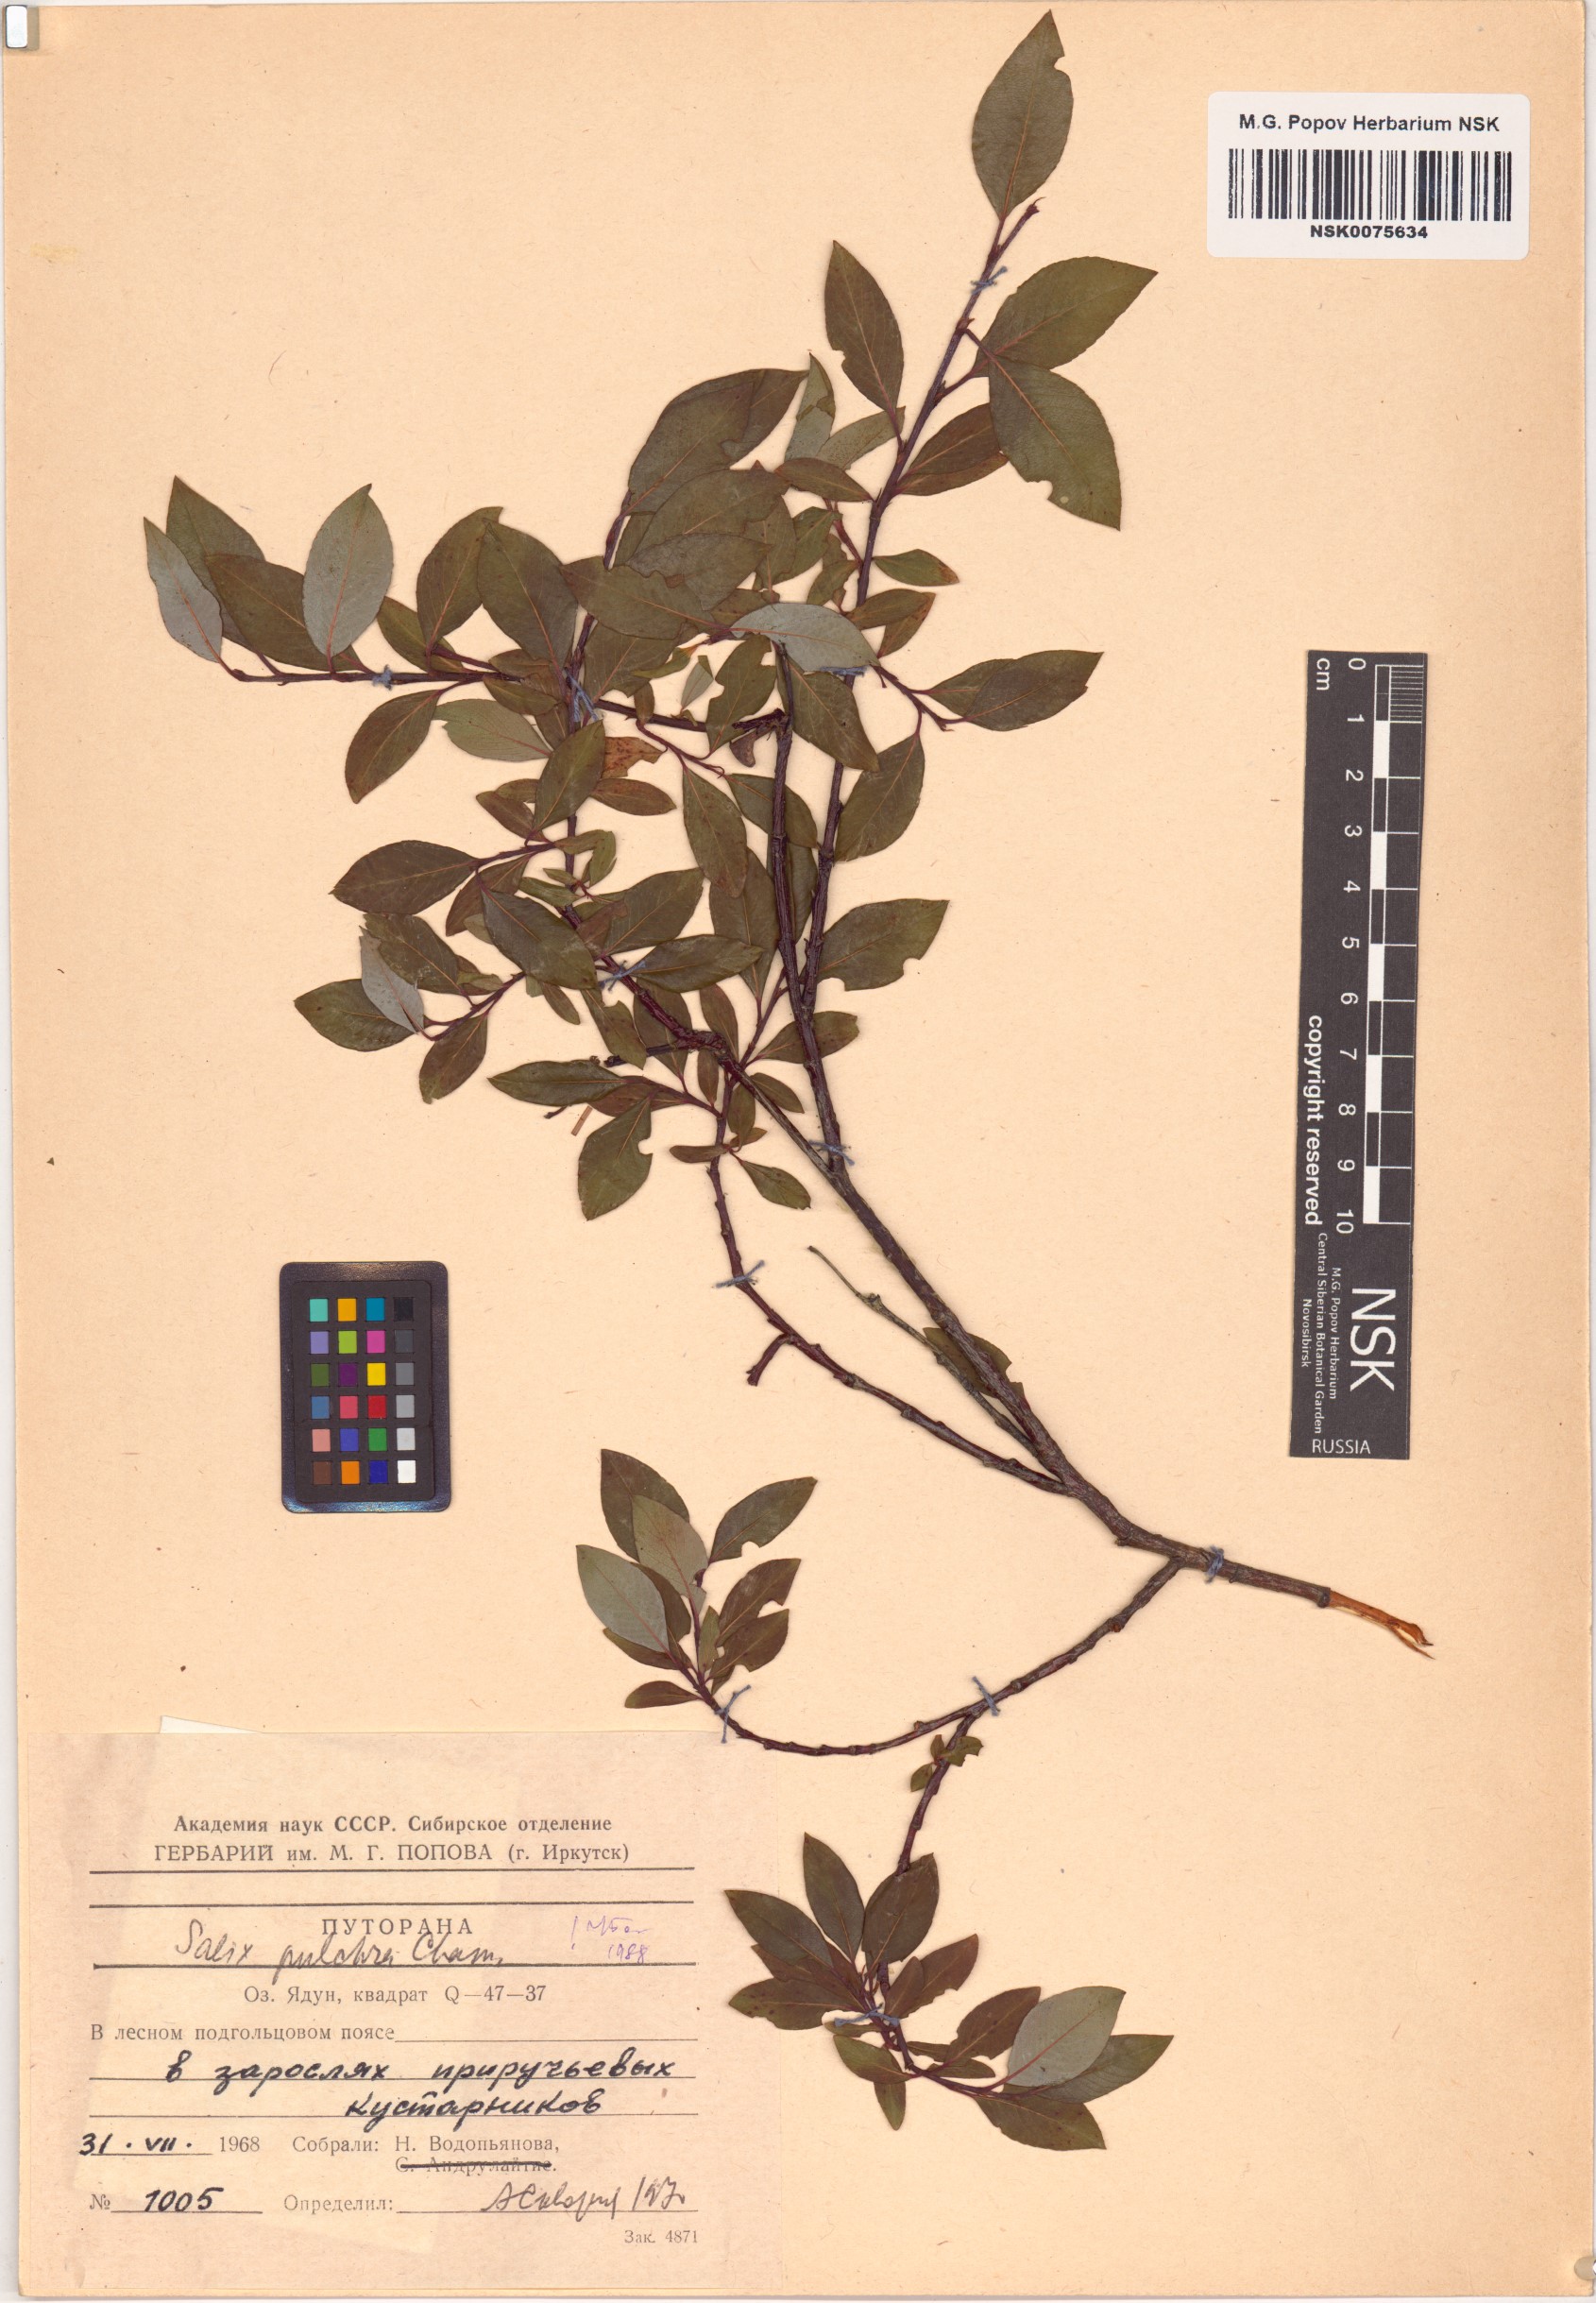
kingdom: Plantae
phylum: Tracheophyta
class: Magnoliopsida
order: Malpighiales
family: Salicaceae
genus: Salix
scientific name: Salix pulchra
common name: Diamond-leaved willow
